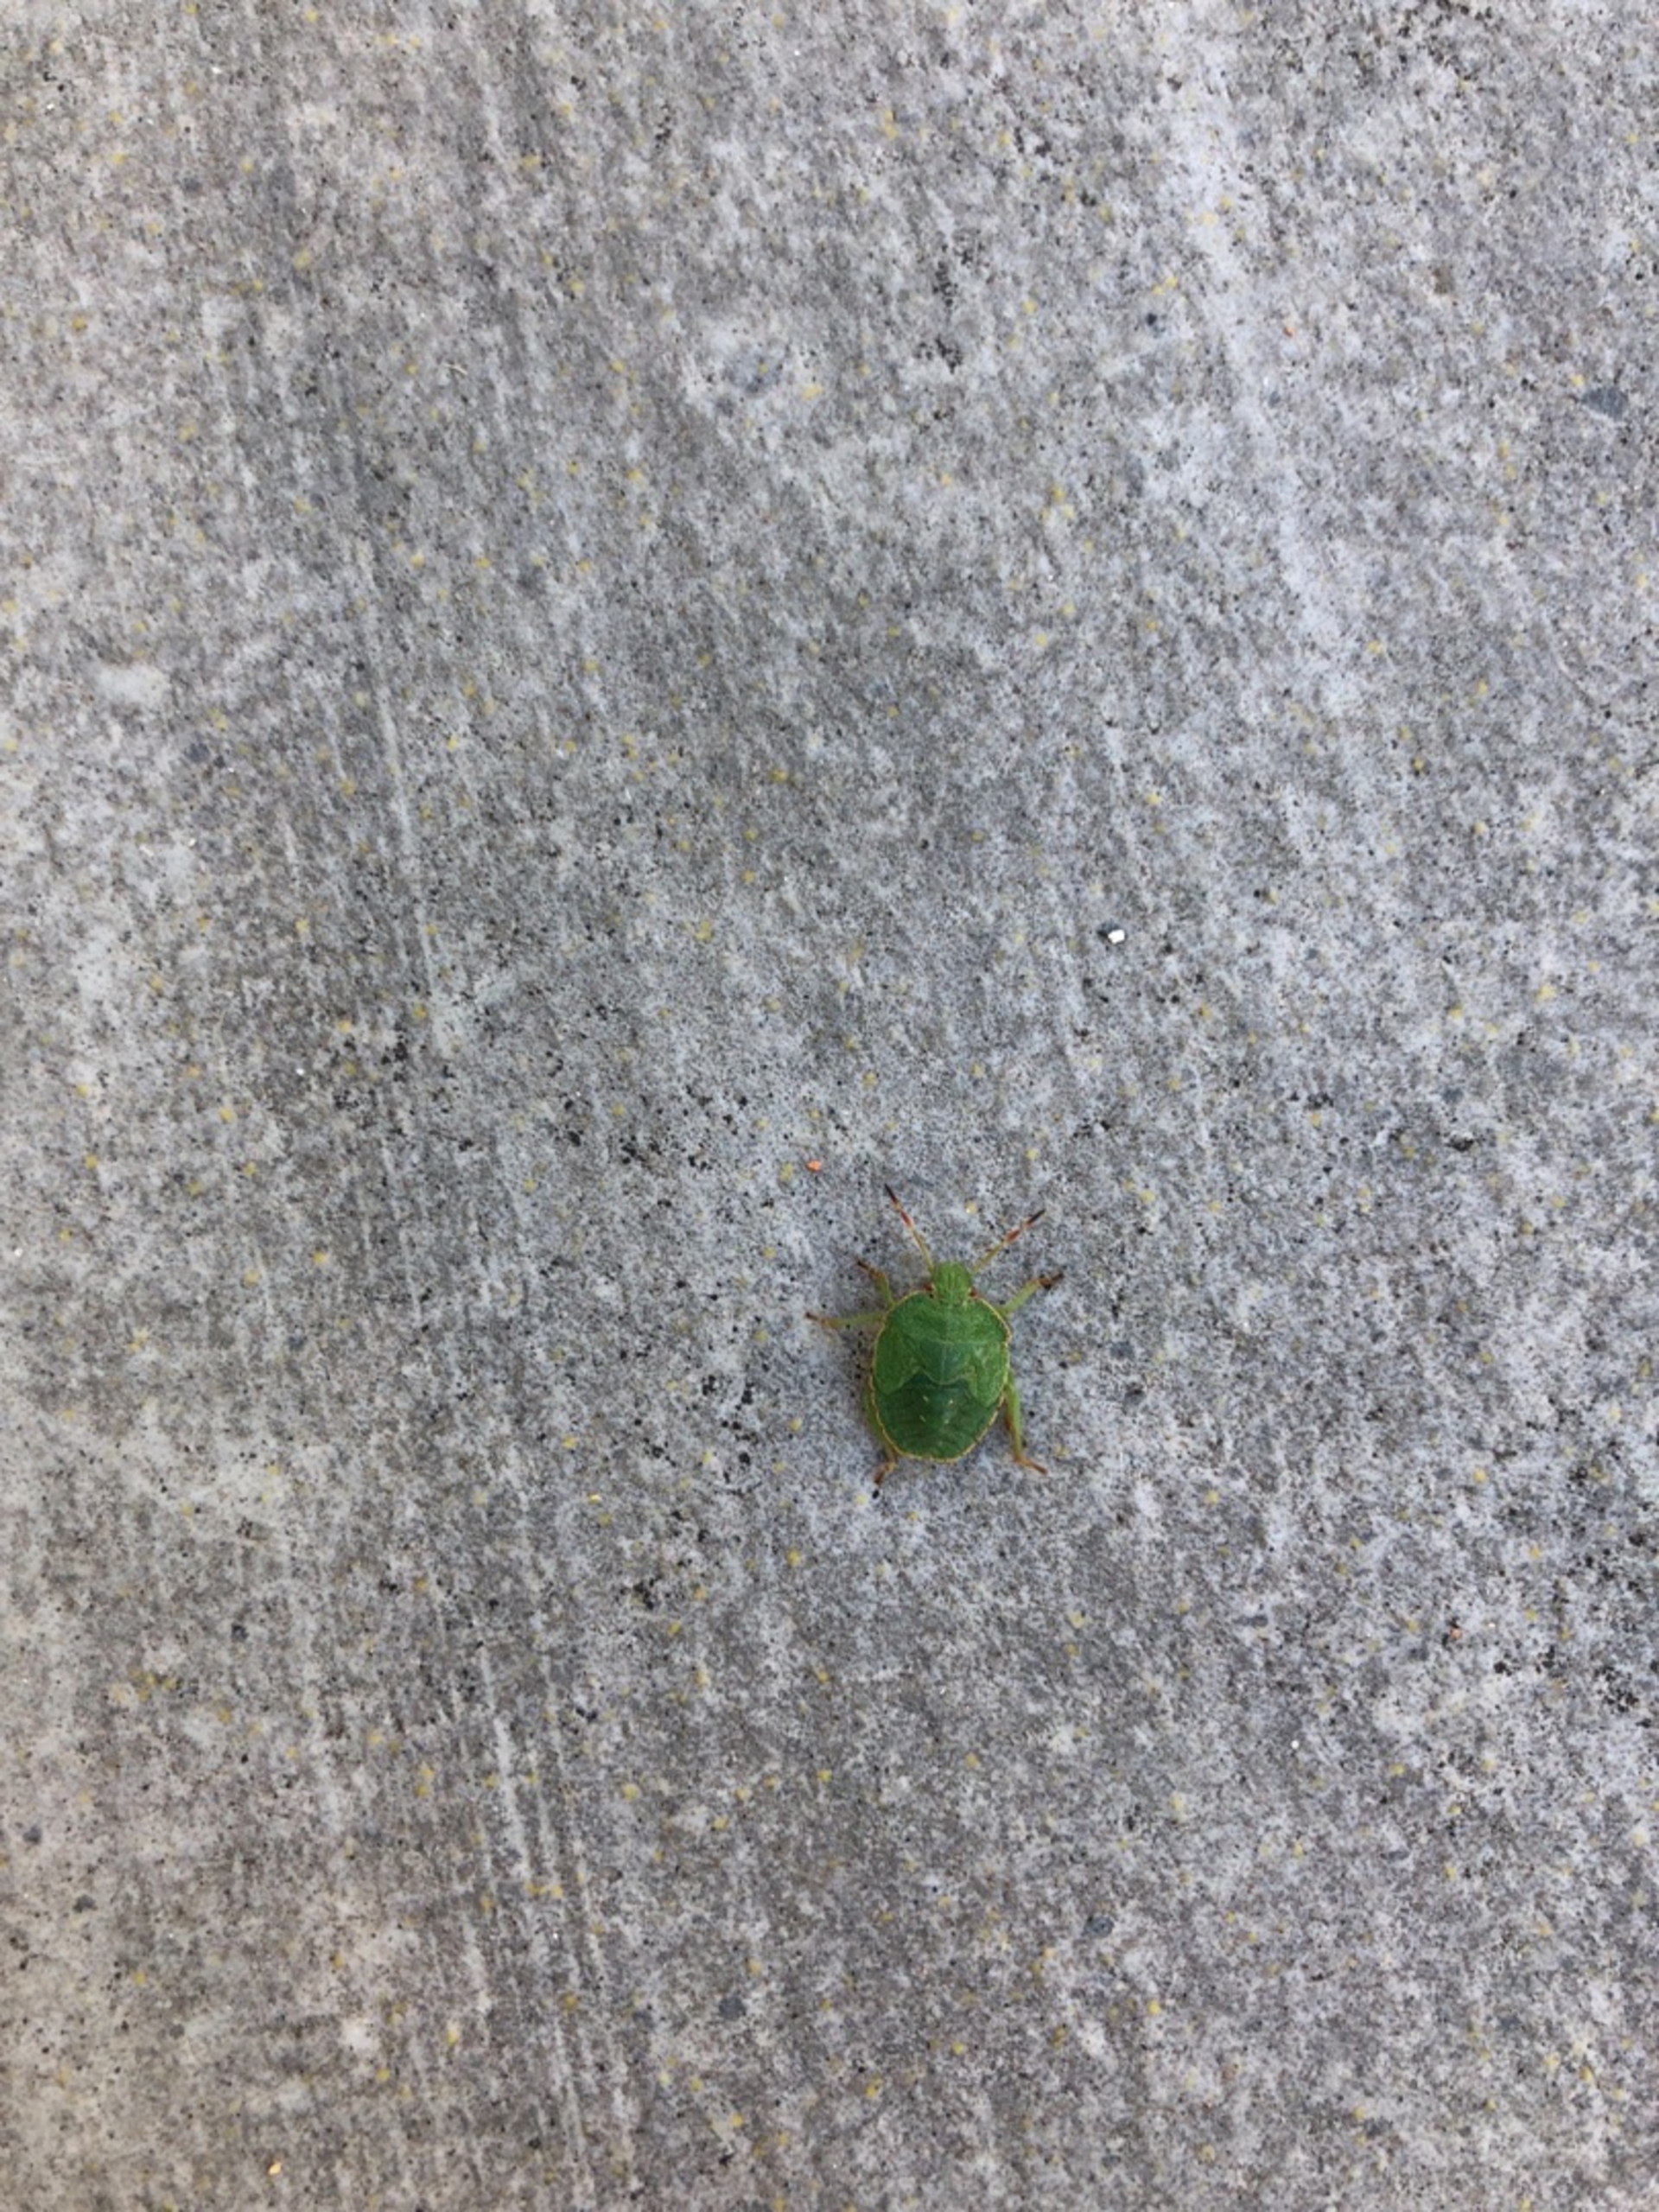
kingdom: Animalia
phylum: Arthropoda
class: Insecta
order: Hemiptera
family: Pentatomidae
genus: Palomena
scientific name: Palomena prasina
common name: Grøn bredtæge
